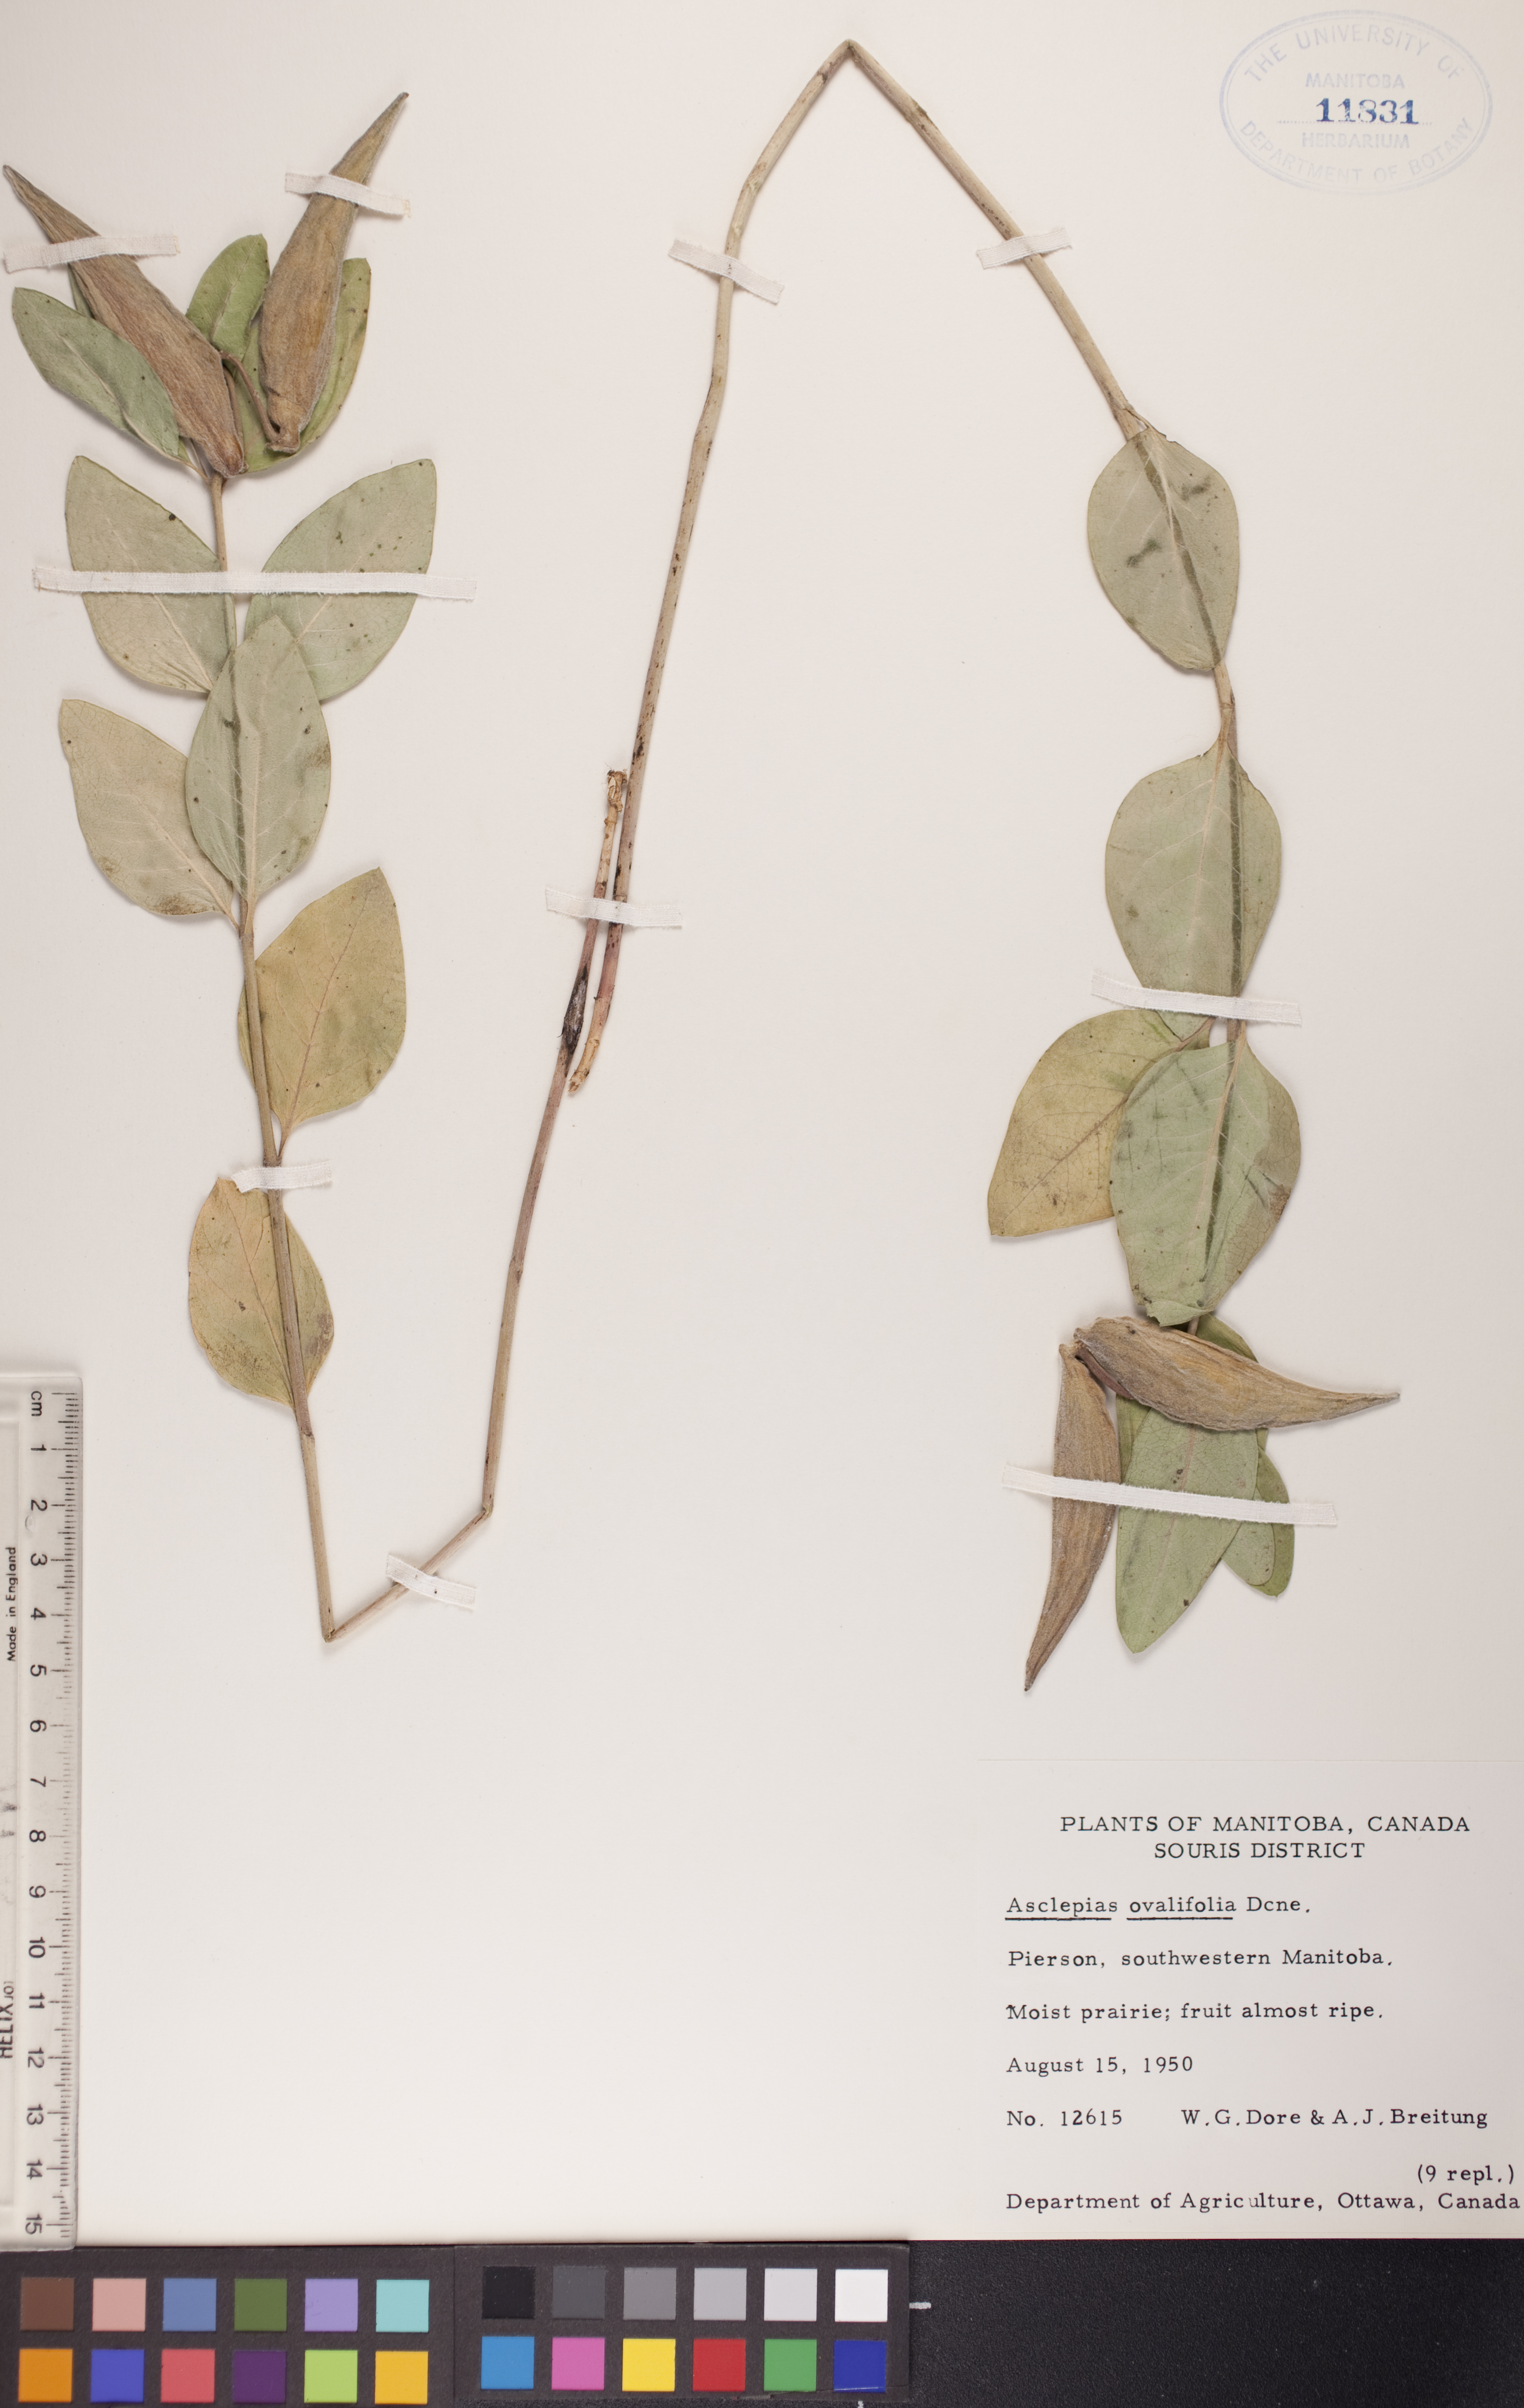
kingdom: Plantae
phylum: Tracheophyta
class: Magnoliopsida
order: Gentianales
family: Apocynaceae
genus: Asclepias
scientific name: Asclepias ovalifolia
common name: Dwarf milkweed
